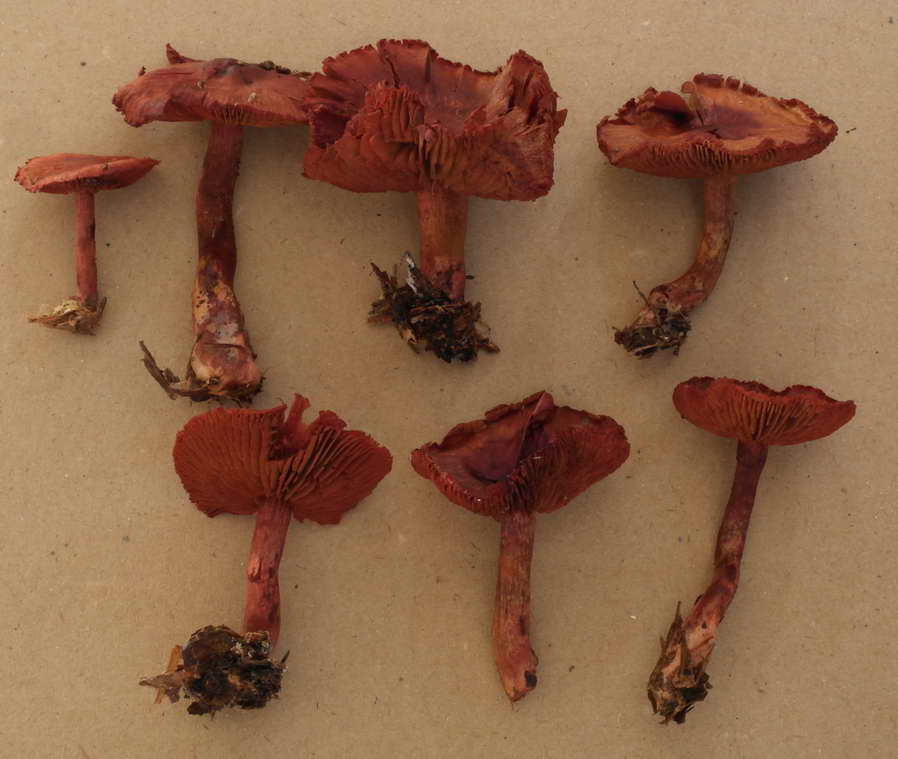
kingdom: Fungi
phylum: Basidiomycota
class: Agaricomycetes
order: Agaricales
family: Cortinariaceae
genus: Cortinarius
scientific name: Cortinarius sanguineus
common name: Bloodred webcap
